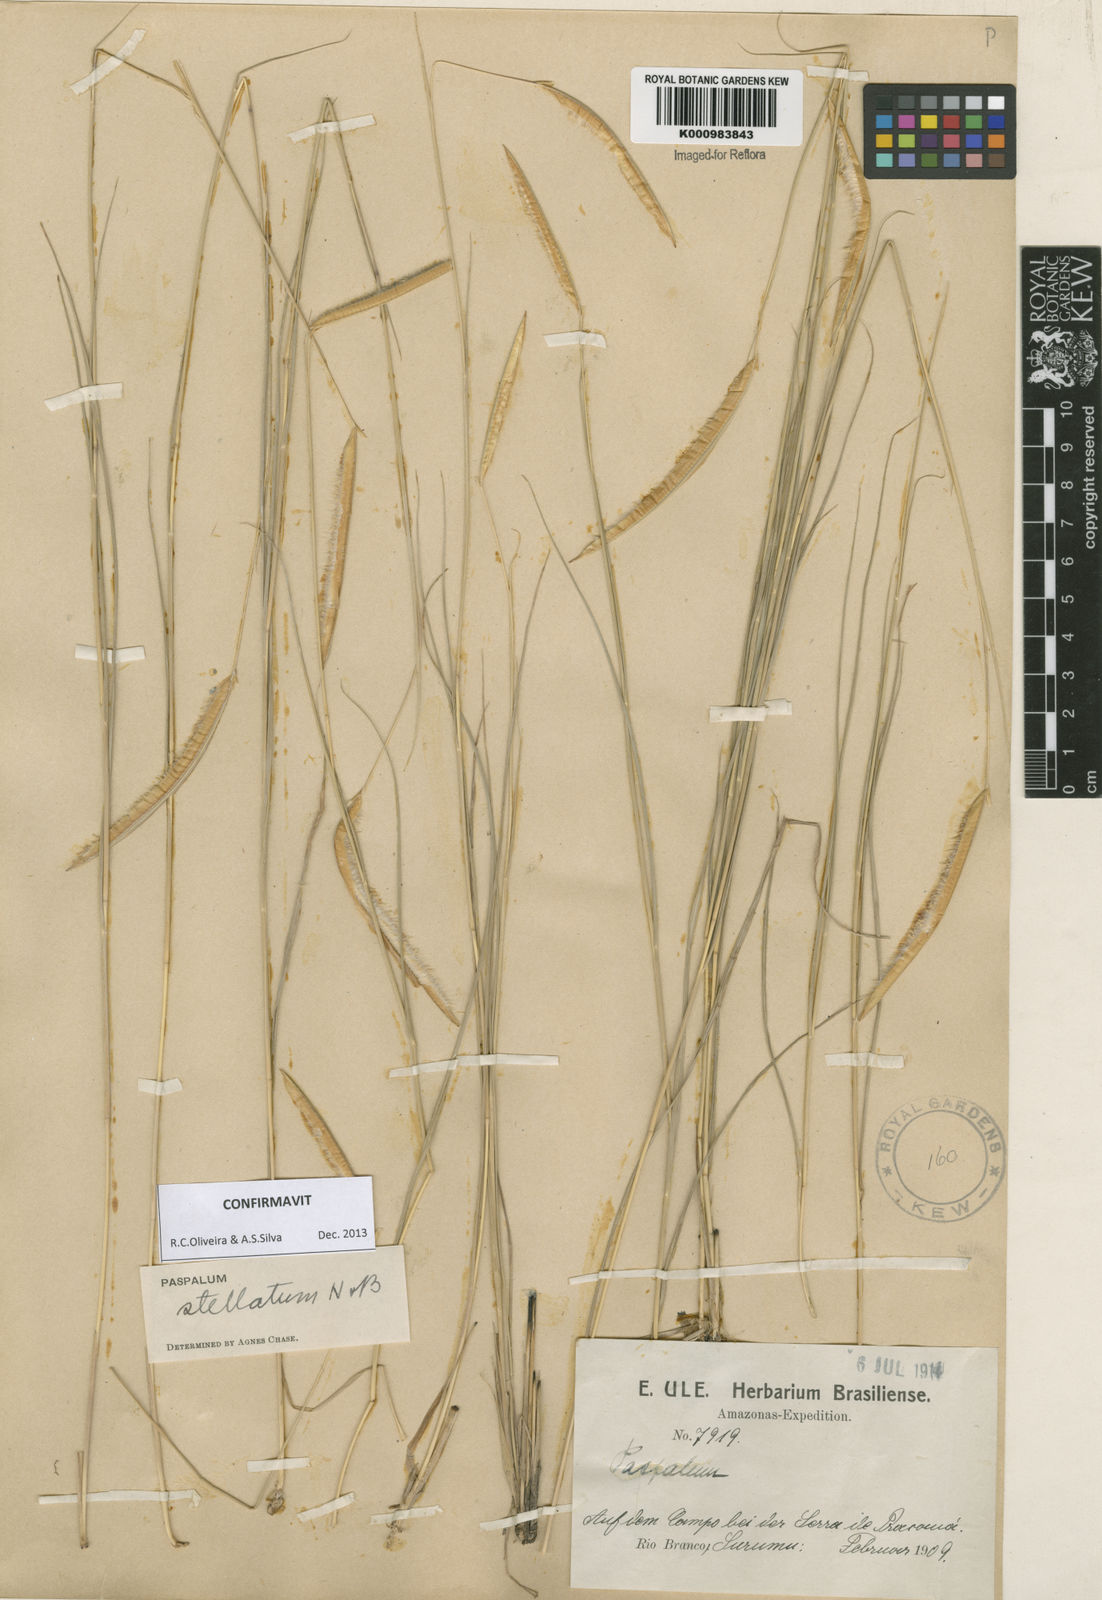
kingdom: Plantae
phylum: Tracheophyta
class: Liliopsida
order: Poales
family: Poaceae
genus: Paspalum
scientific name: Paspalum
